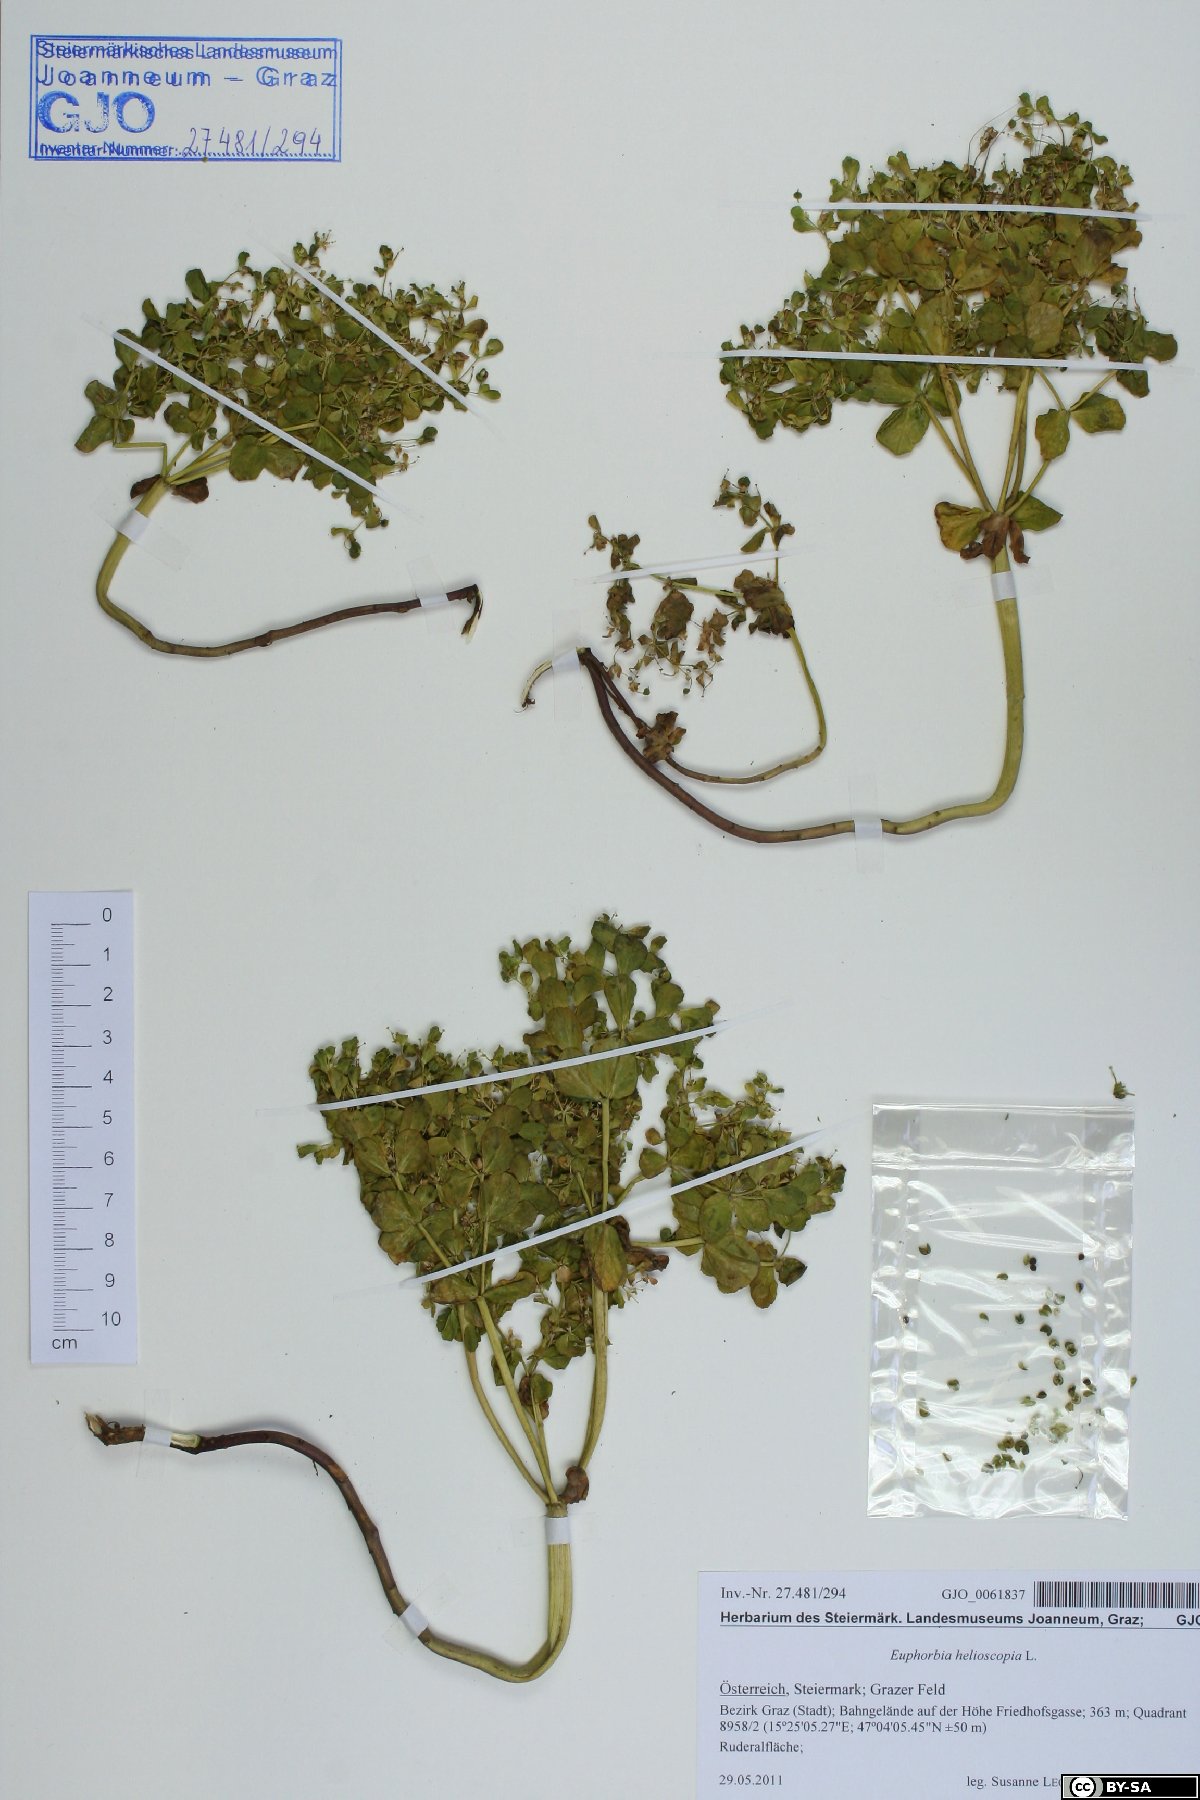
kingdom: Plantae
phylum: Tracheophyta
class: Magnoliopsida
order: Malpighiales
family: Euphorbiaceae
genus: Euphorbia
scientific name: Euphorbia helioscopia
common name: Sun spurge
